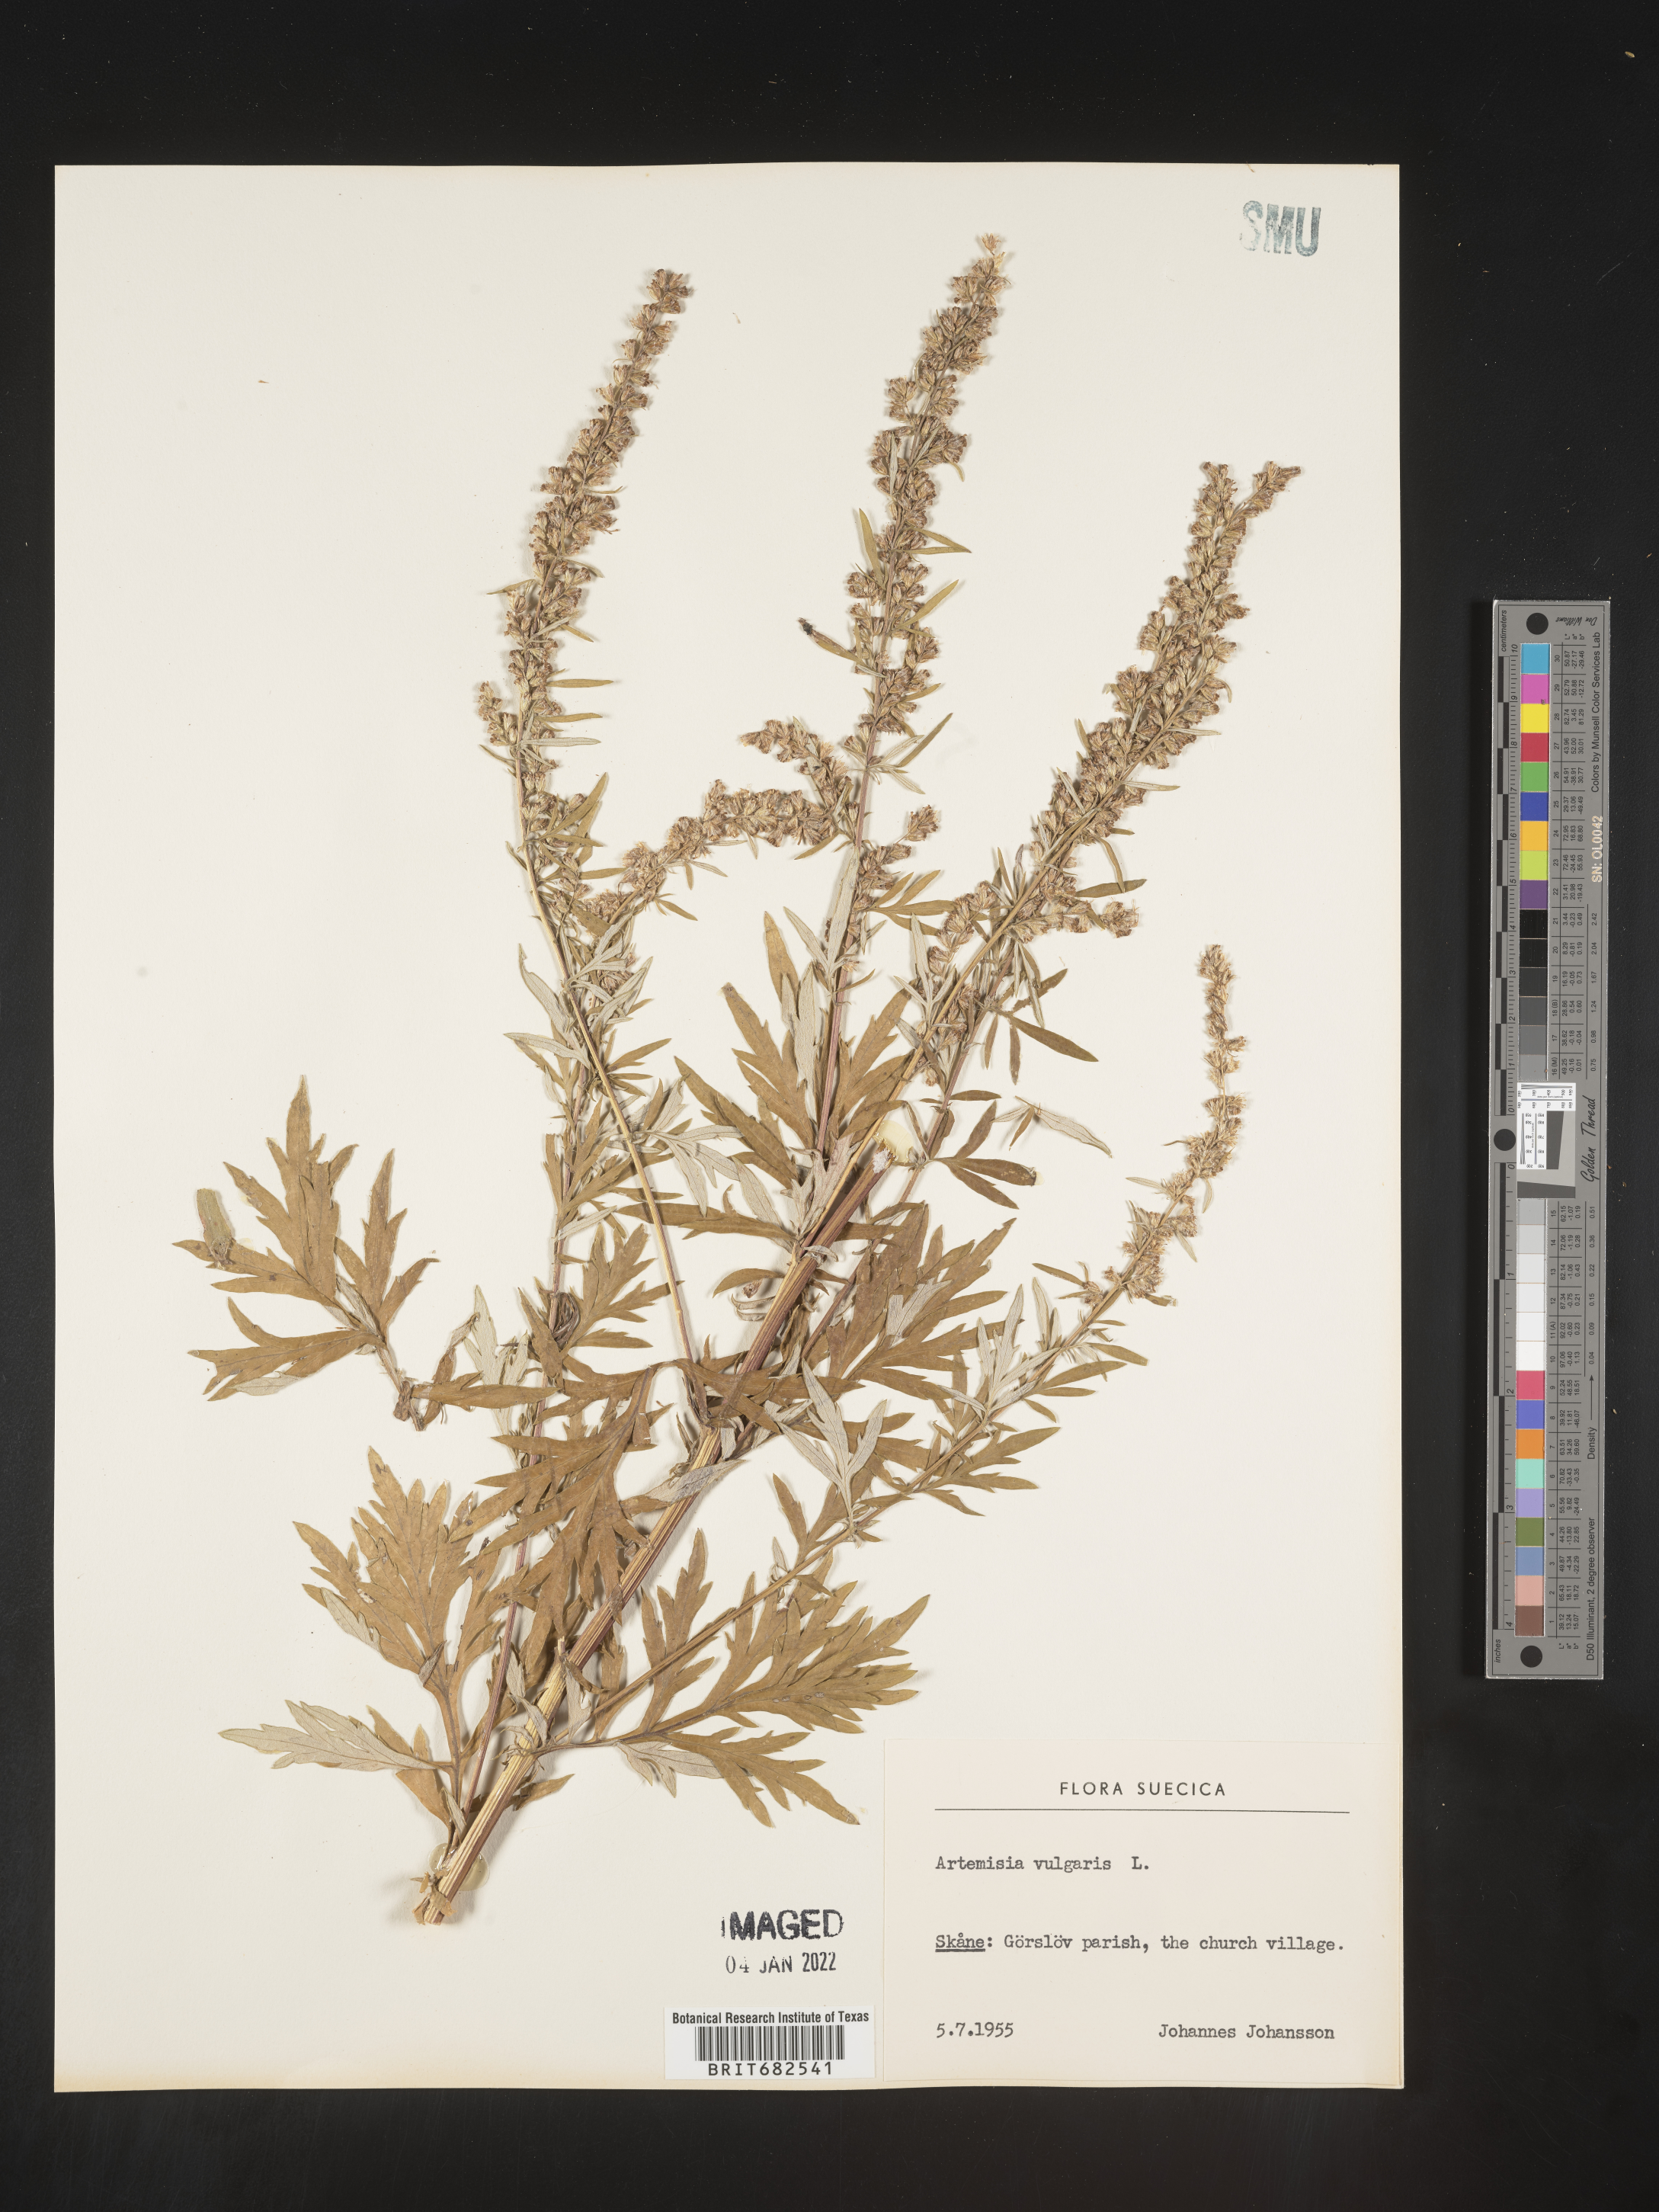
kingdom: Plantae
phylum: Tracheophyta
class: Magnoliopsida
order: Asterales
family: Asteraceae
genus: Artemisia
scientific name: Artemisia
